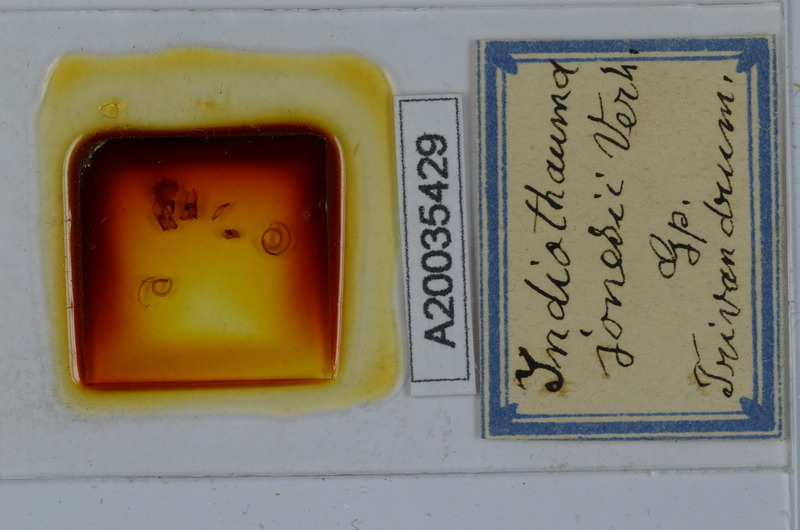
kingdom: Animalia
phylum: Arthropoda
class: Diplopoda
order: Spirostreptida
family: Harpagophoridae
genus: Harpurostreptus
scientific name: Harpurostreptus jonesi
